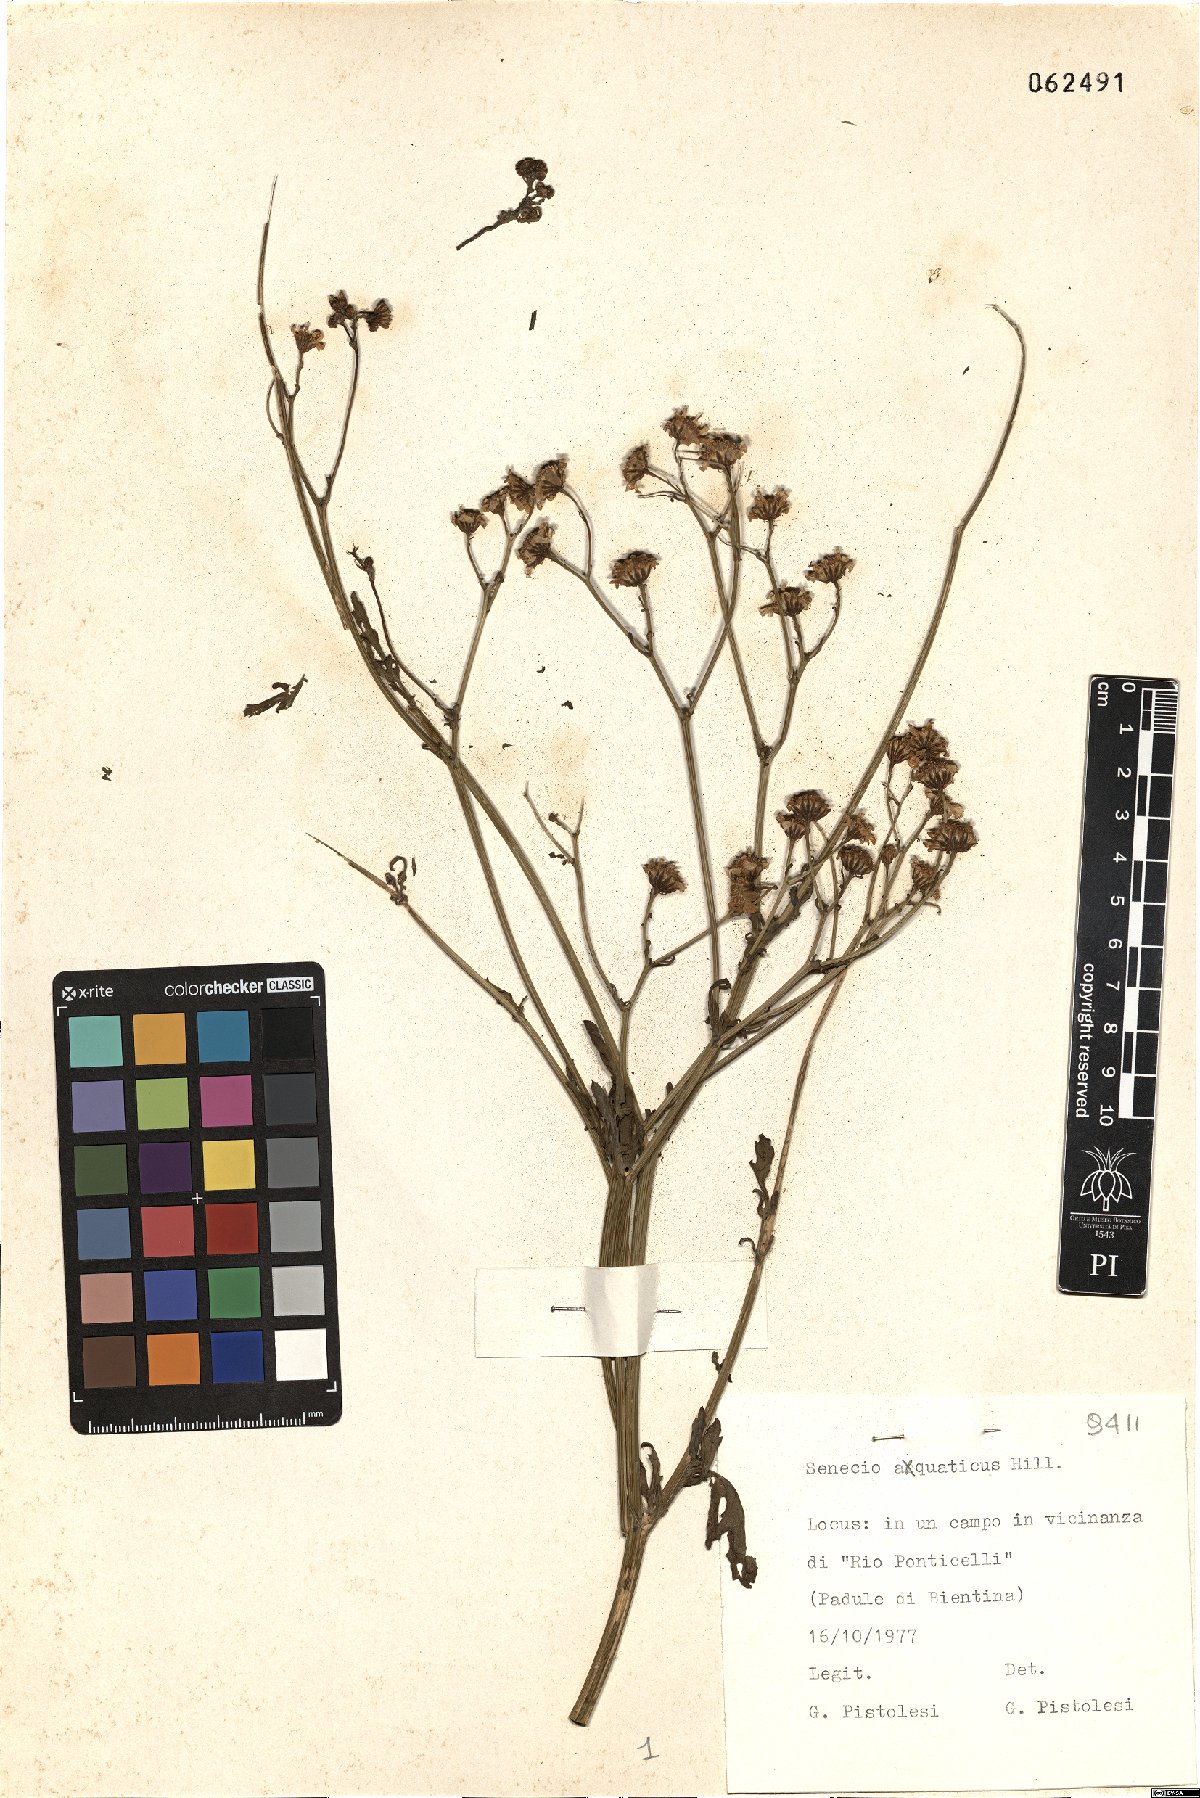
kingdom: Plantae
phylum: Tracheophyta
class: Magnoliopsida
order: Asterales
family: Asteraceae
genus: Jacobaea
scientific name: Jacobaea aquatica
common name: Water ragwort
